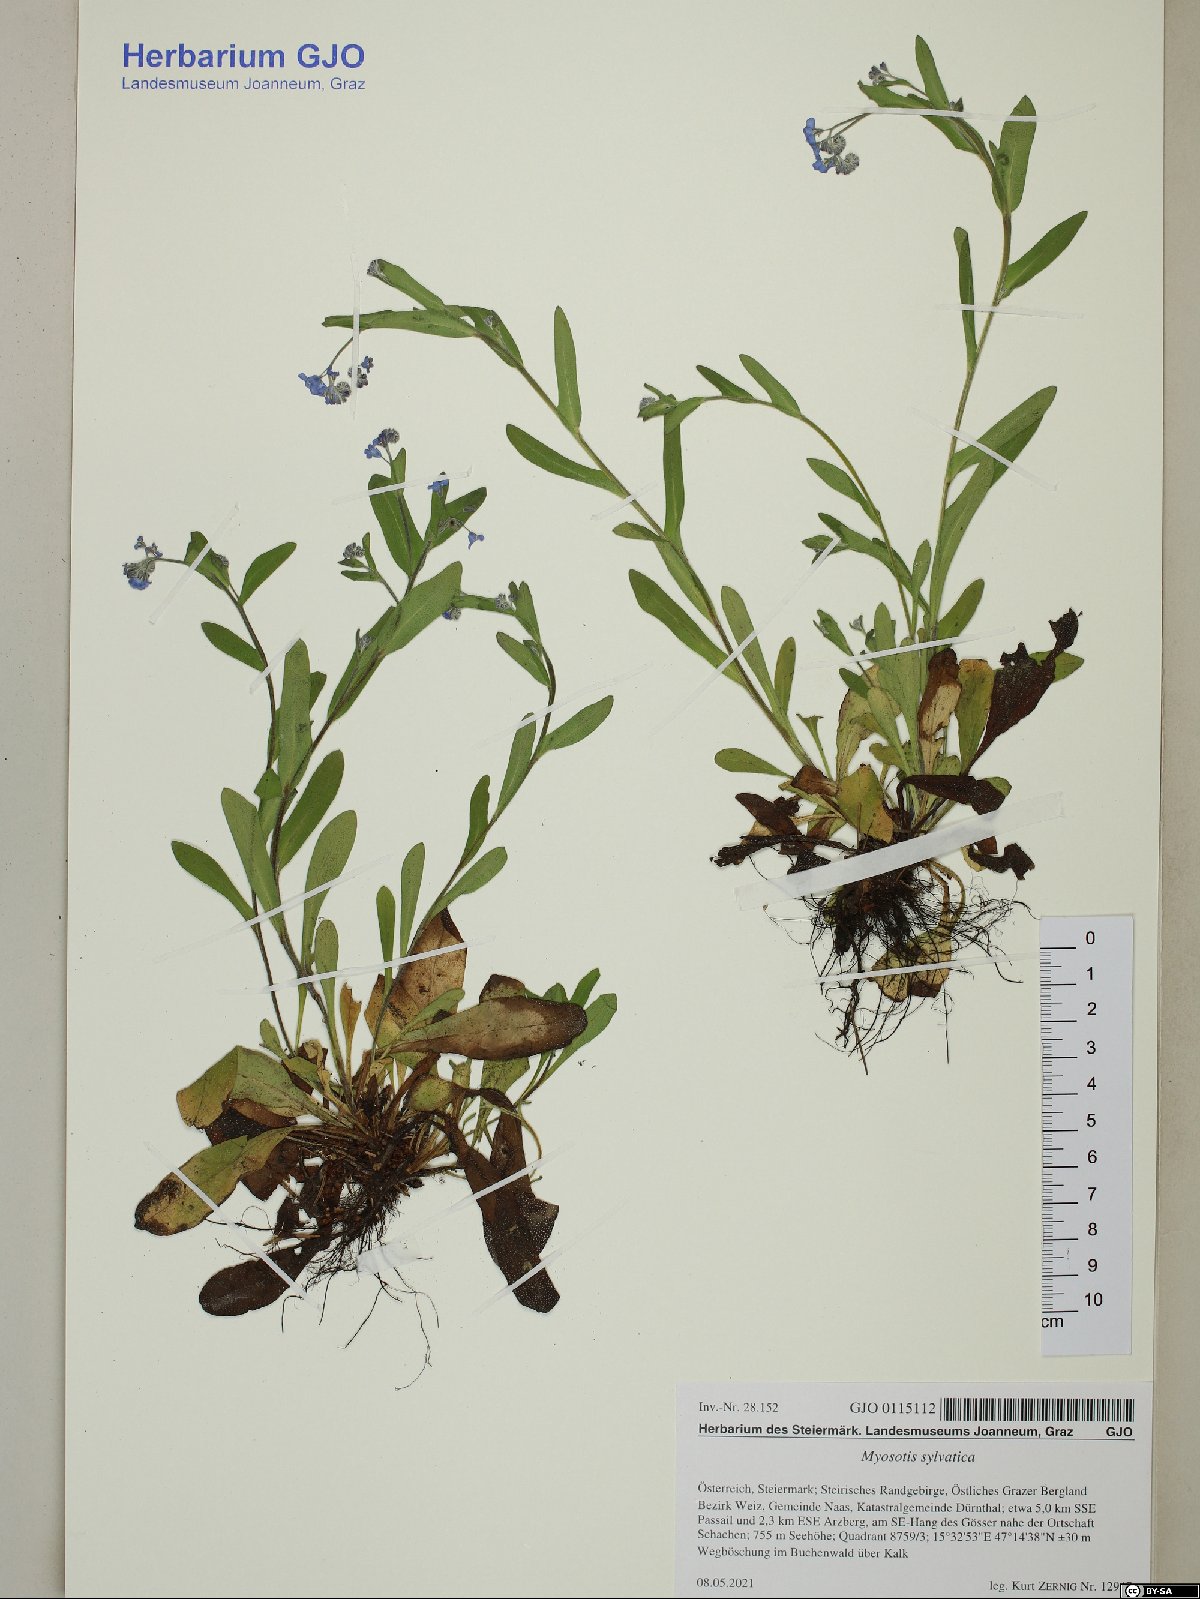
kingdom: Plantae
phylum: Tracheophyta
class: Magnoliopsida
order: Boraginales
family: Boraginaceae
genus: Myosotis
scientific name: Myosotis sylvatica
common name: Wood forget-me-not
